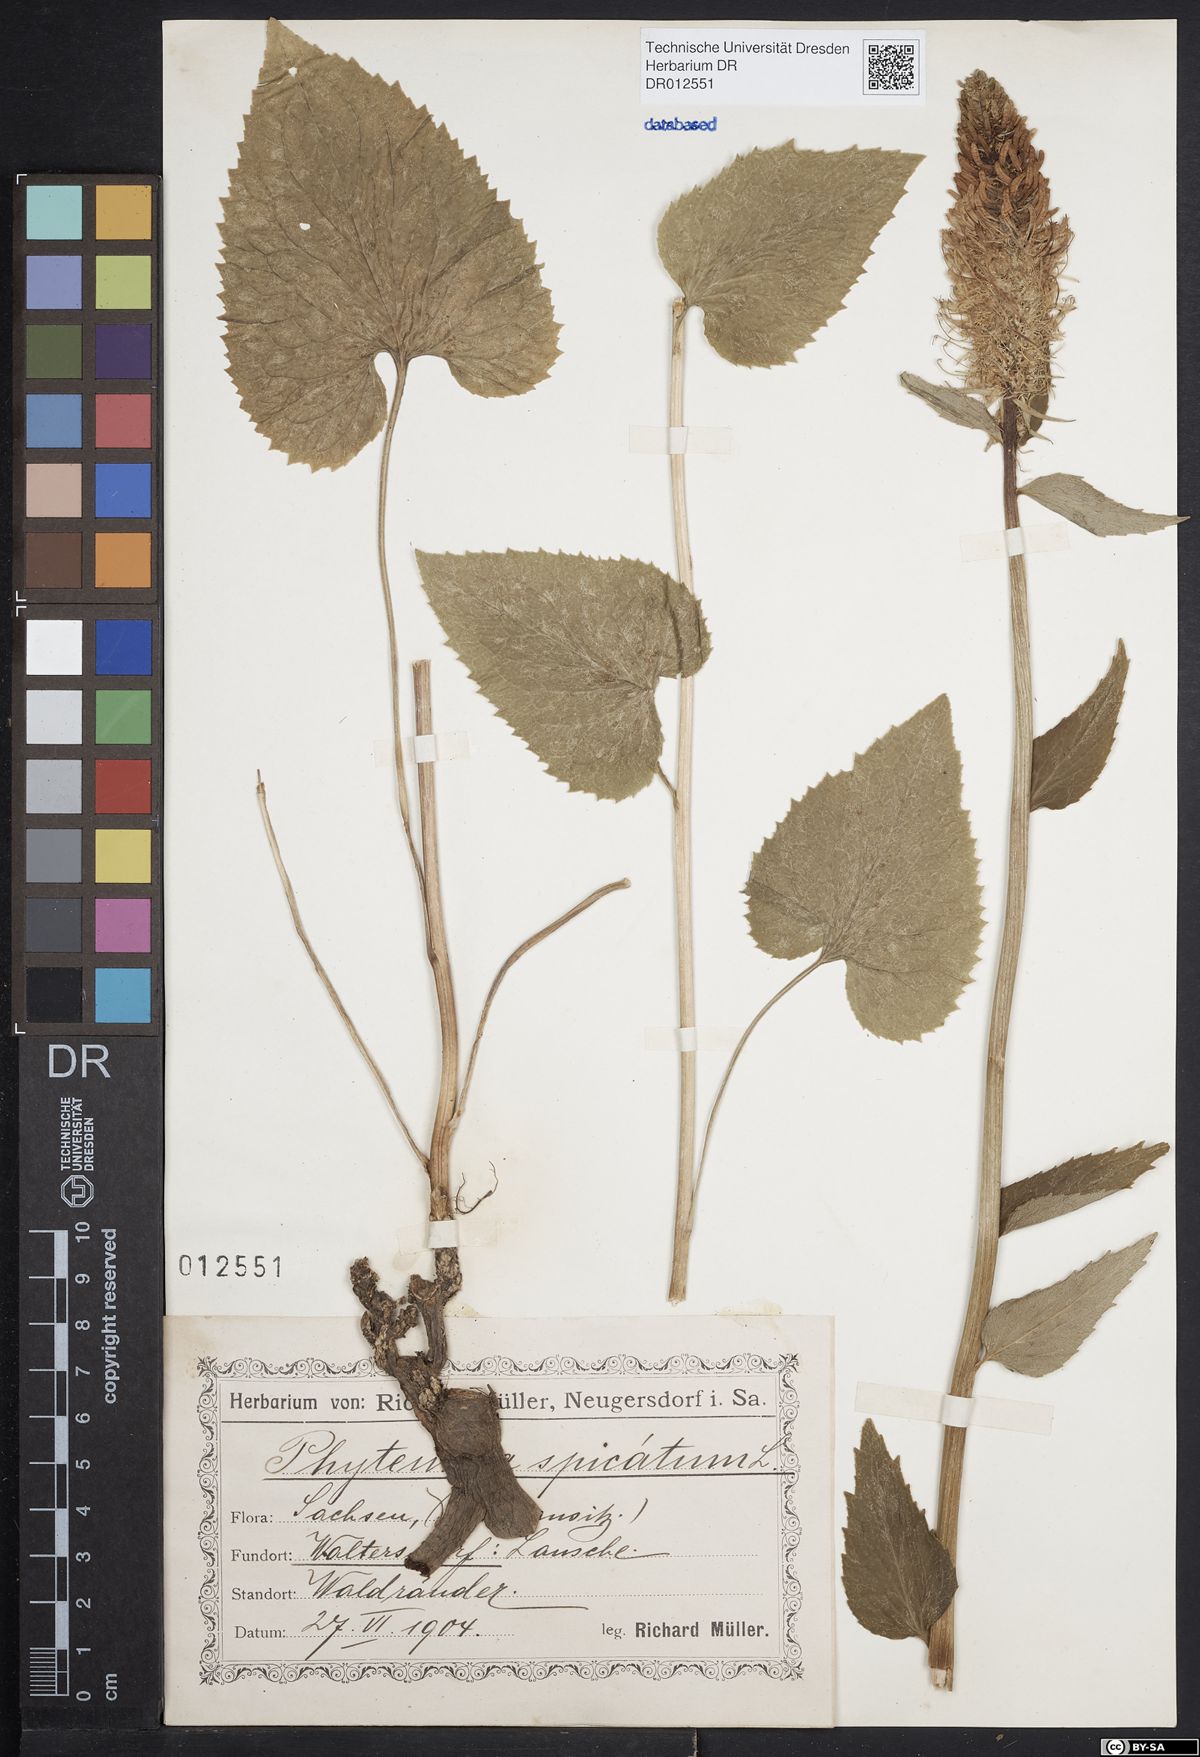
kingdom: Plantae
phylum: Tracheophyta
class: Magnoliopsida
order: Asterales
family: Campanulaceae
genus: Phyteuma
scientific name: Phyteuma spicatum
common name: Spiked rampion
